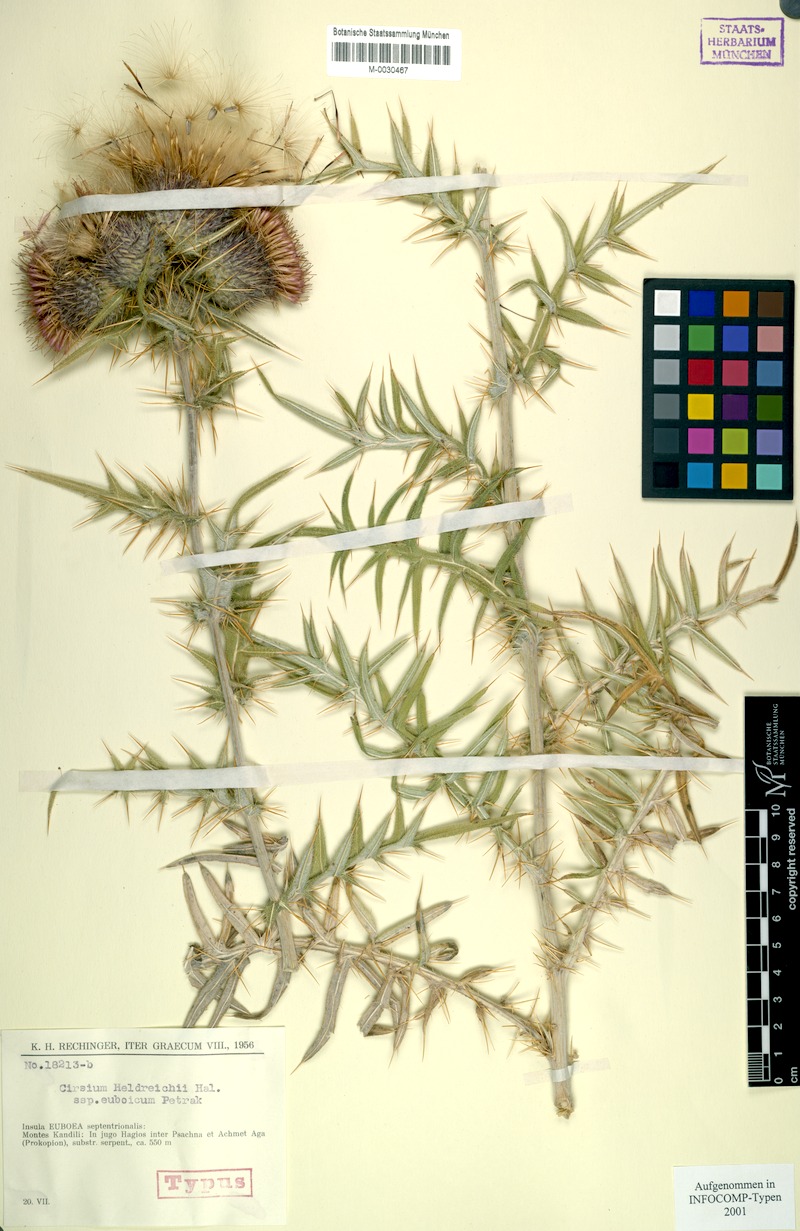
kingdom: Plantae
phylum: Tracheophyta
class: Magnoliopsida
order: Asterales
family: Asteraceae
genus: Lophiolepis
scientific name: Lophiolepis heldreichii
